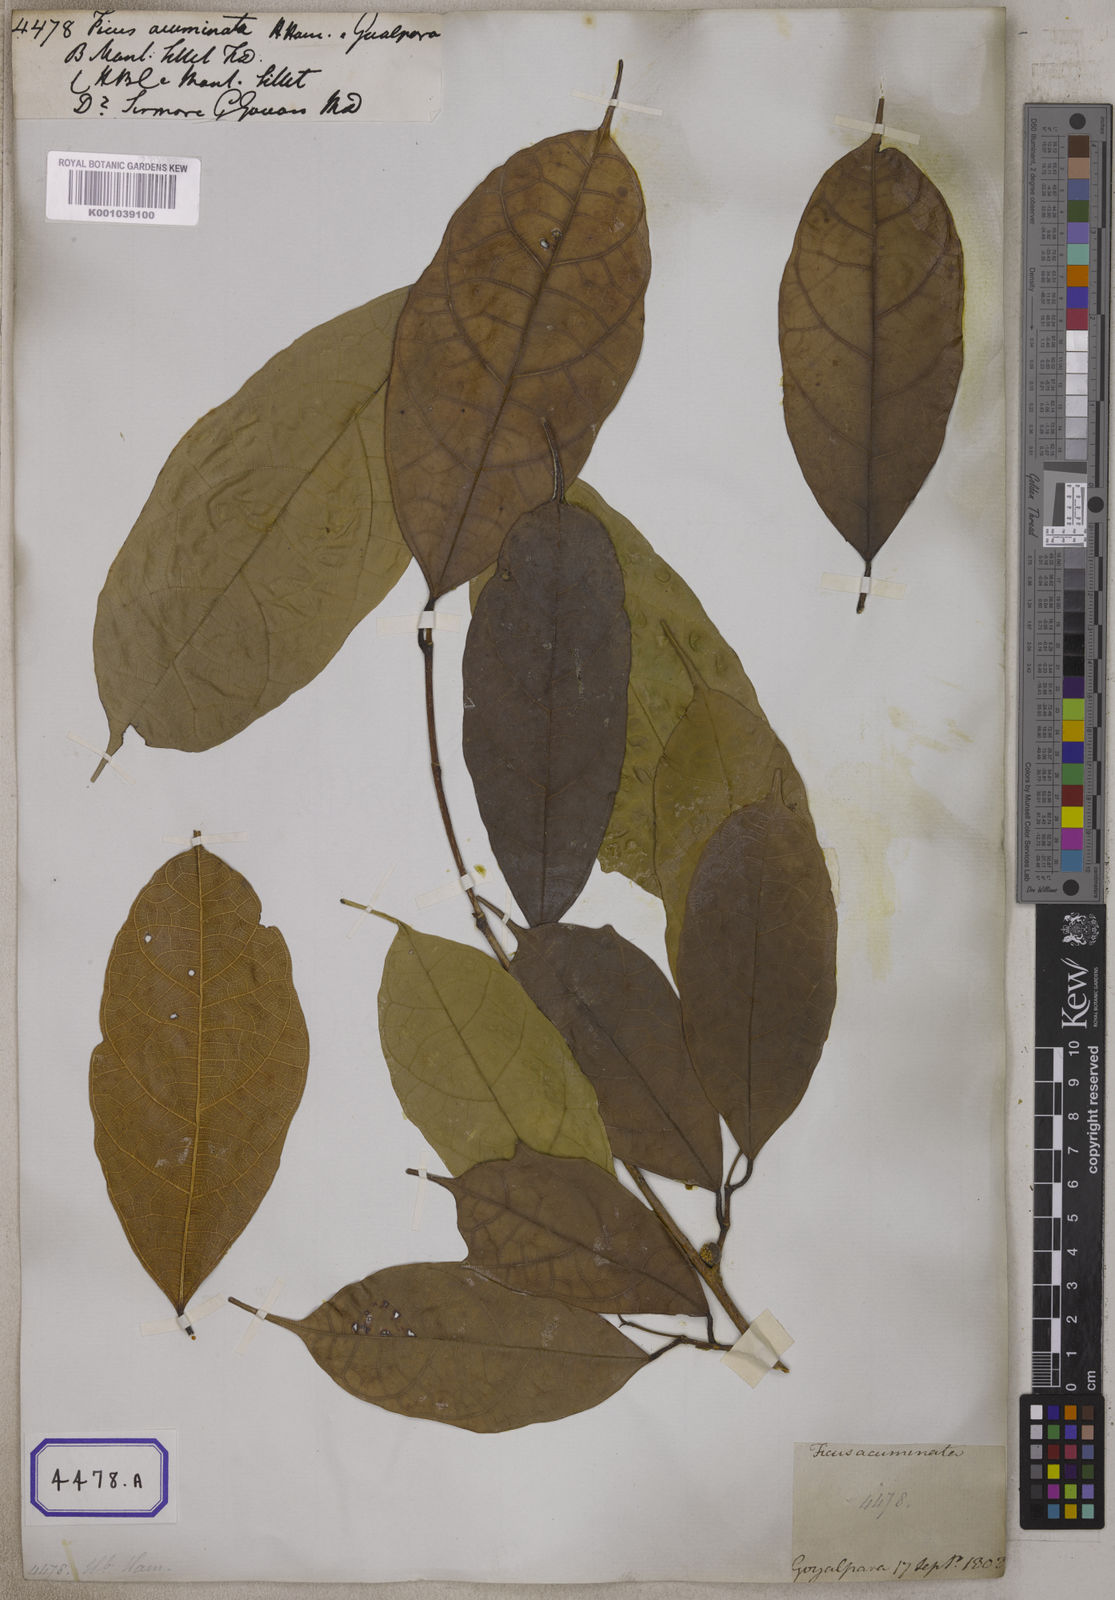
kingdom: Plantae
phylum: Tracheophyta
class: Magnoliopsida
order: Rosales
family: Moraceae
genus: Ficus
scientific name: Ficus
